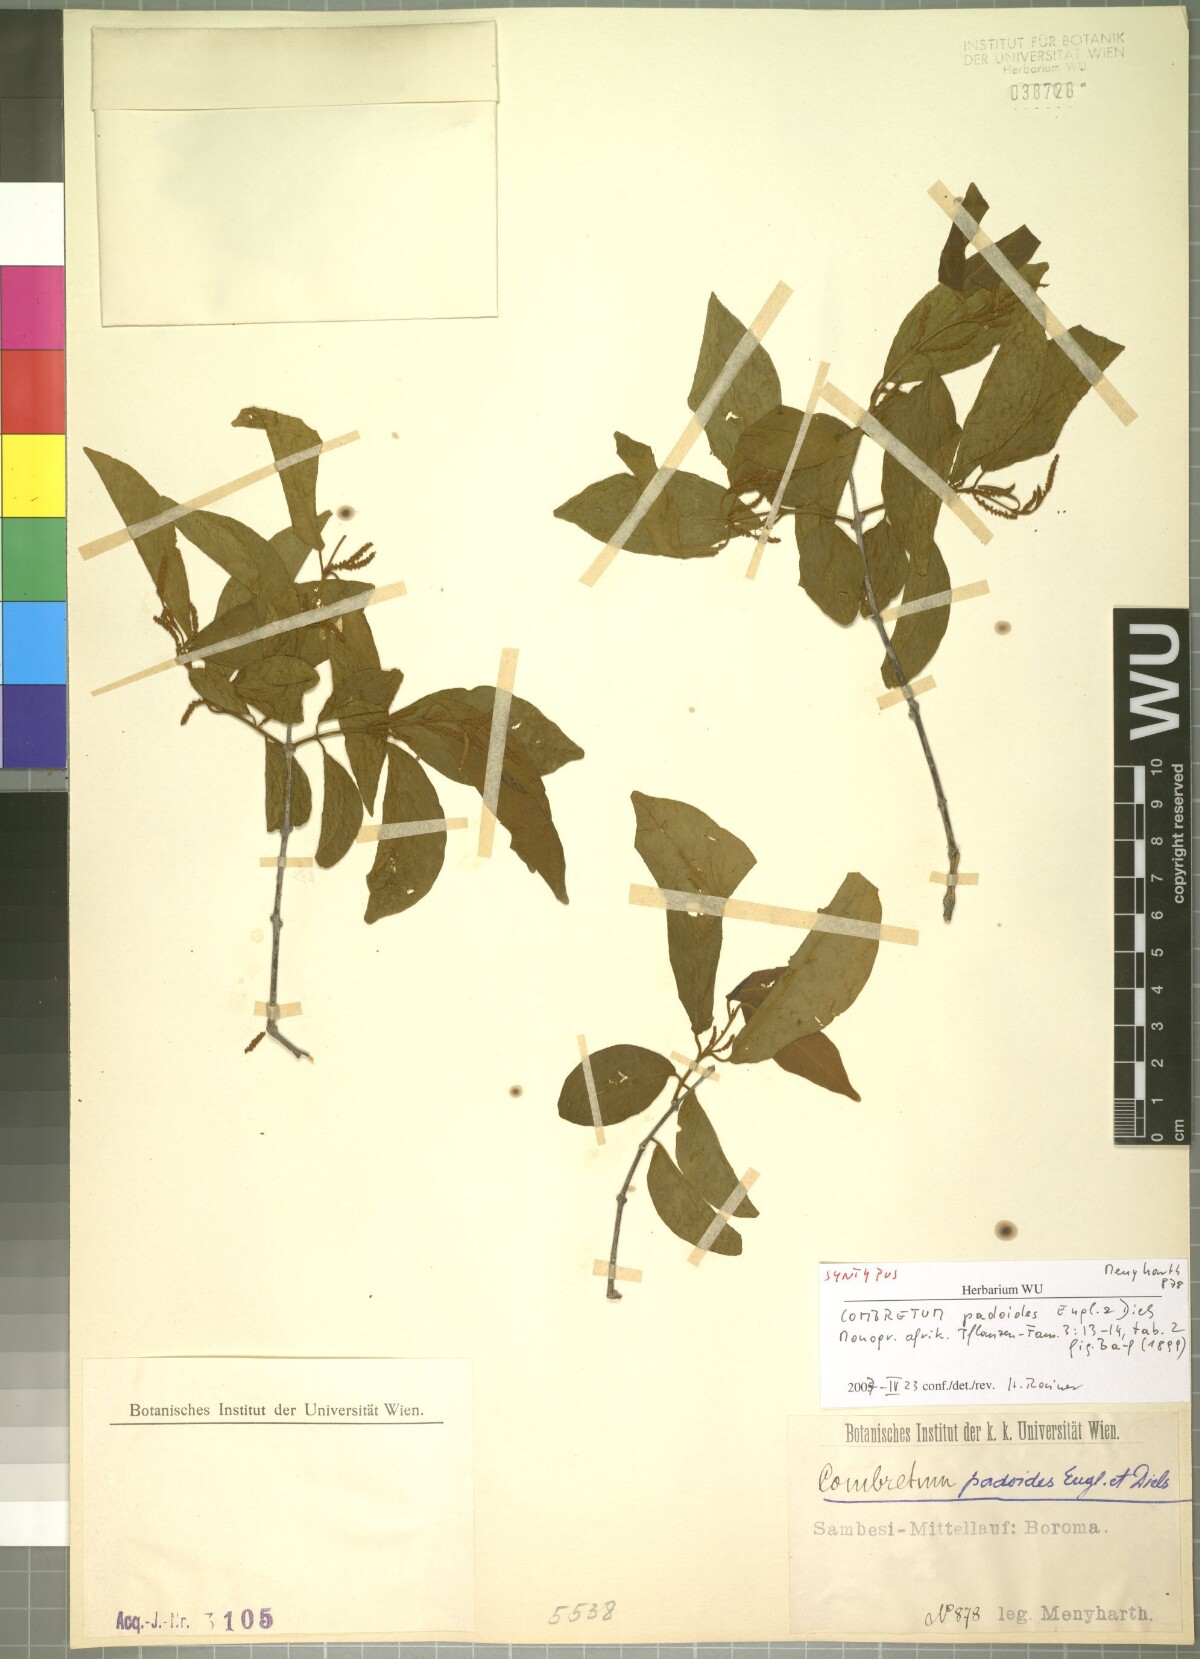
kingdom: Plantae
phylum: Tracheophyta
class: Magnoliopsida
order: Myrtales
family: Combretaceae
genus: Combretum
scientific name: Combretum padoides
